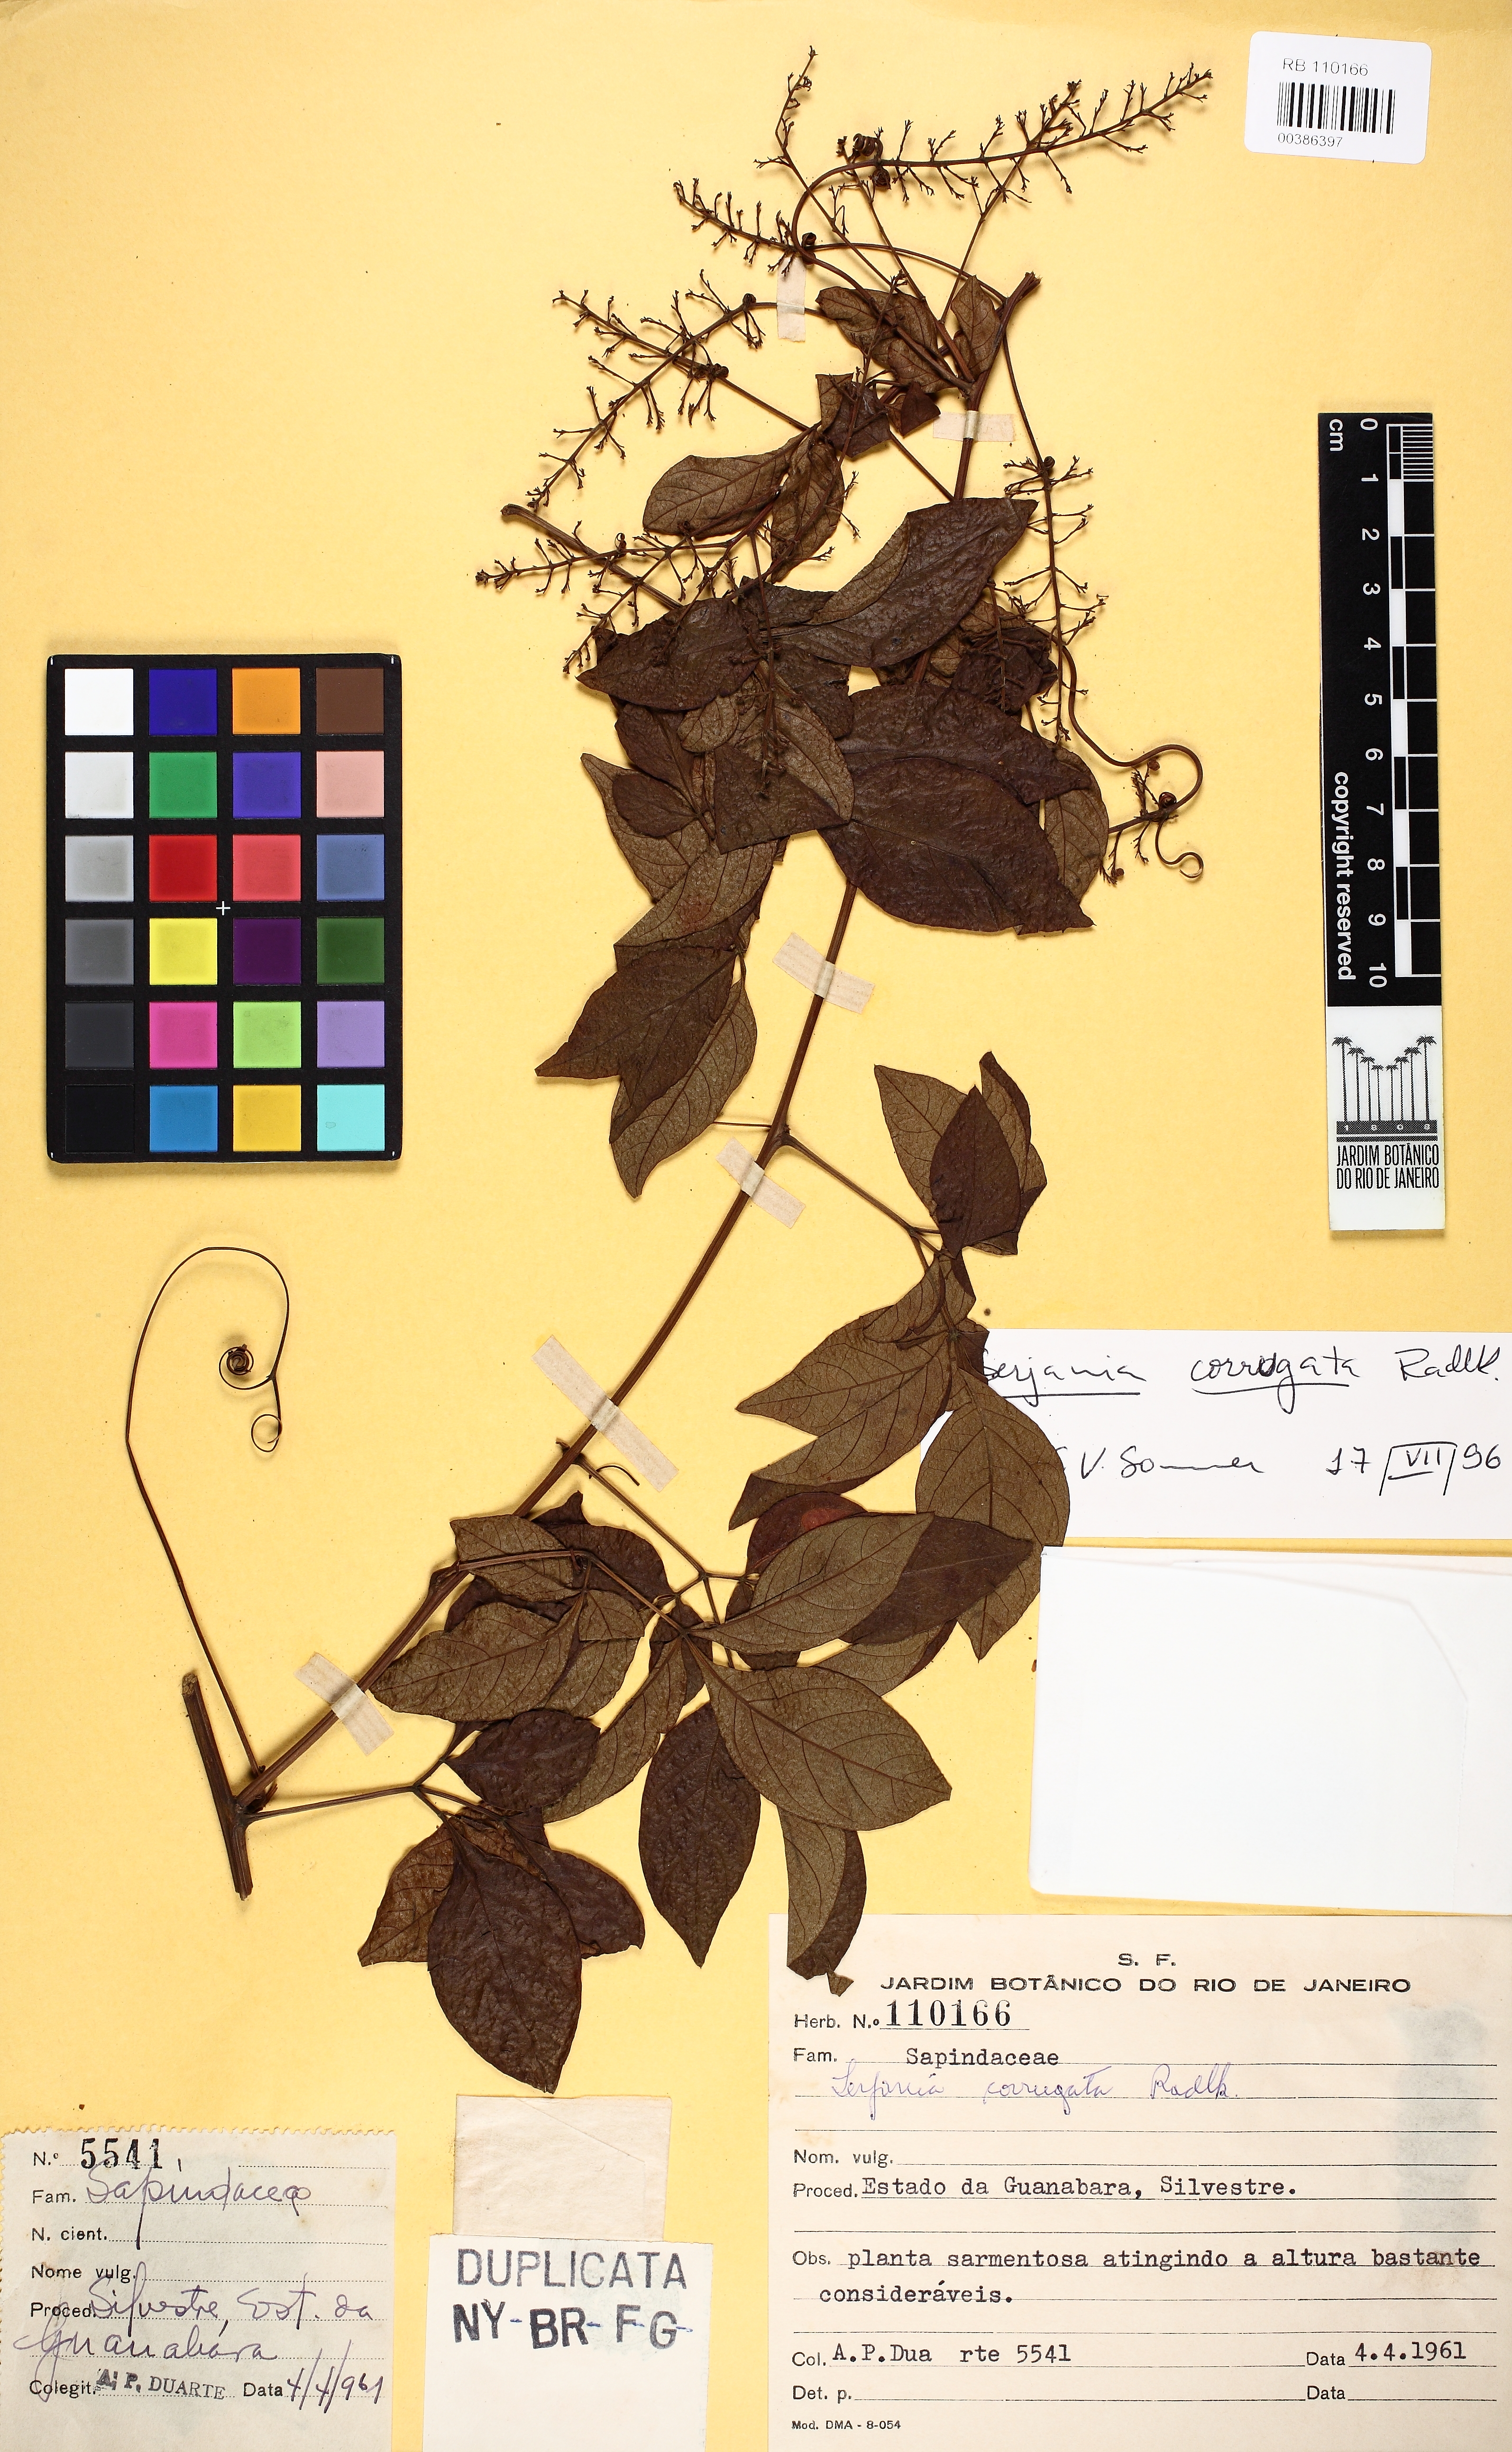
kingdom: Plantae
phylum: Tracheophyta
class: Magnoliopsida
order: Sapindales
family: Sapindaceae
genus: Serjania
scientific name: Serjania corrugata
